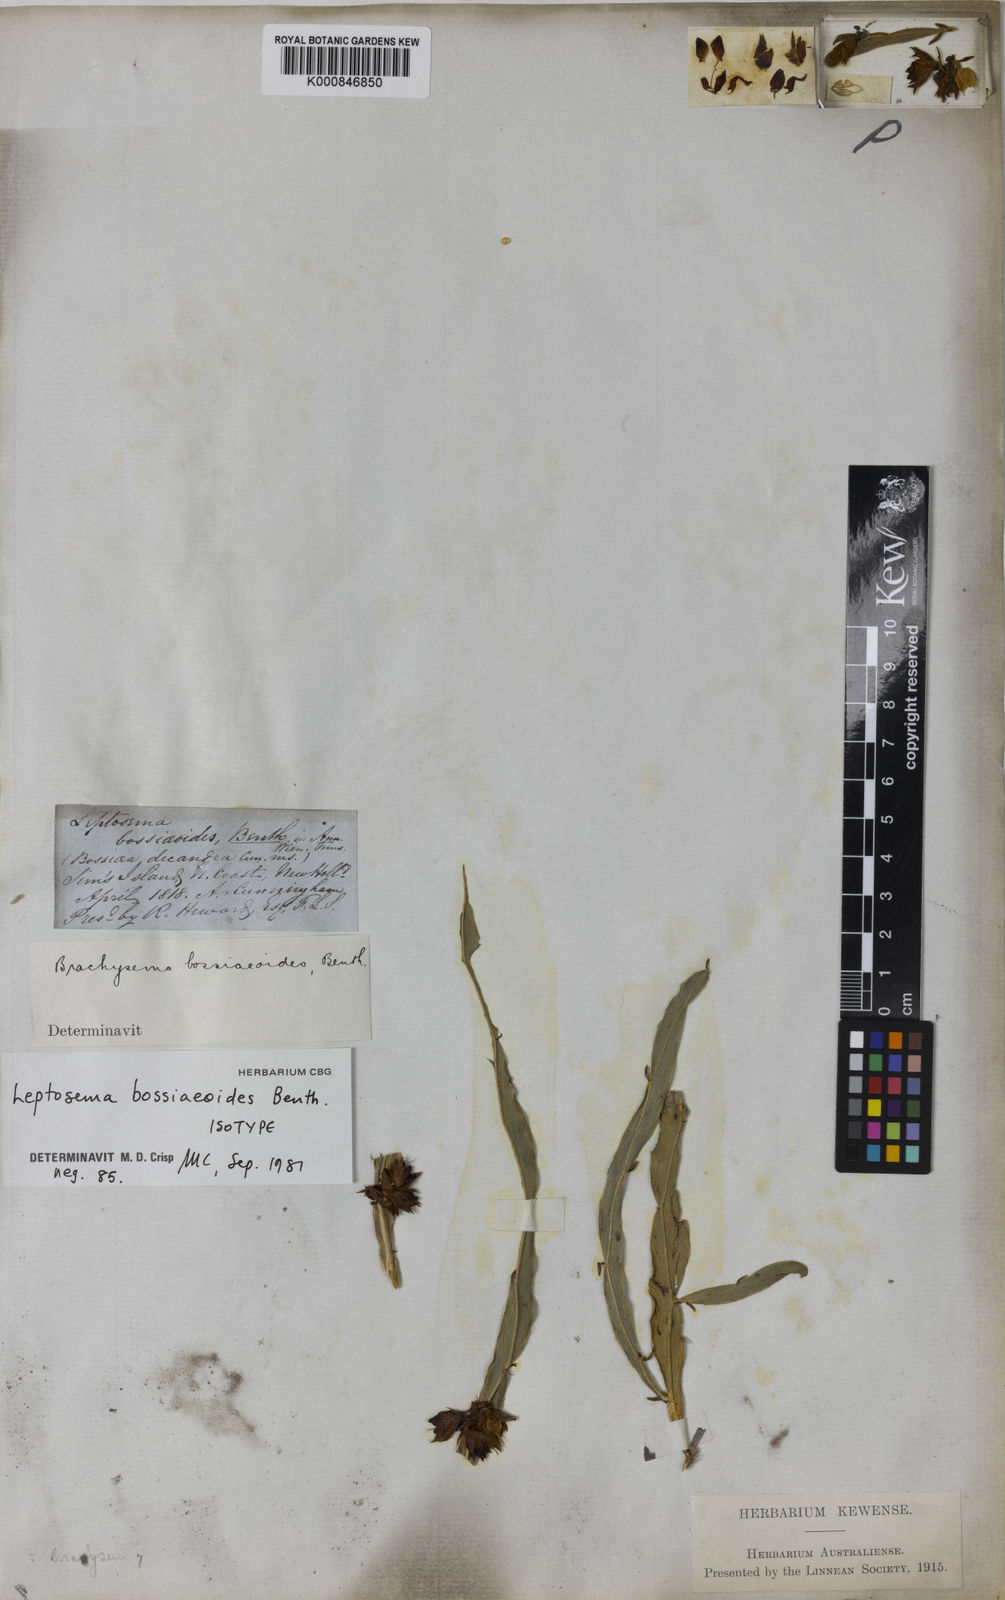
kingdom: Plantae
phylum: Tracheophyta
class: Magnoliopsida
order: Fabales
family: Fabaceae
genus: Leptosema
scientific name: Leptosema bossiaeoides
